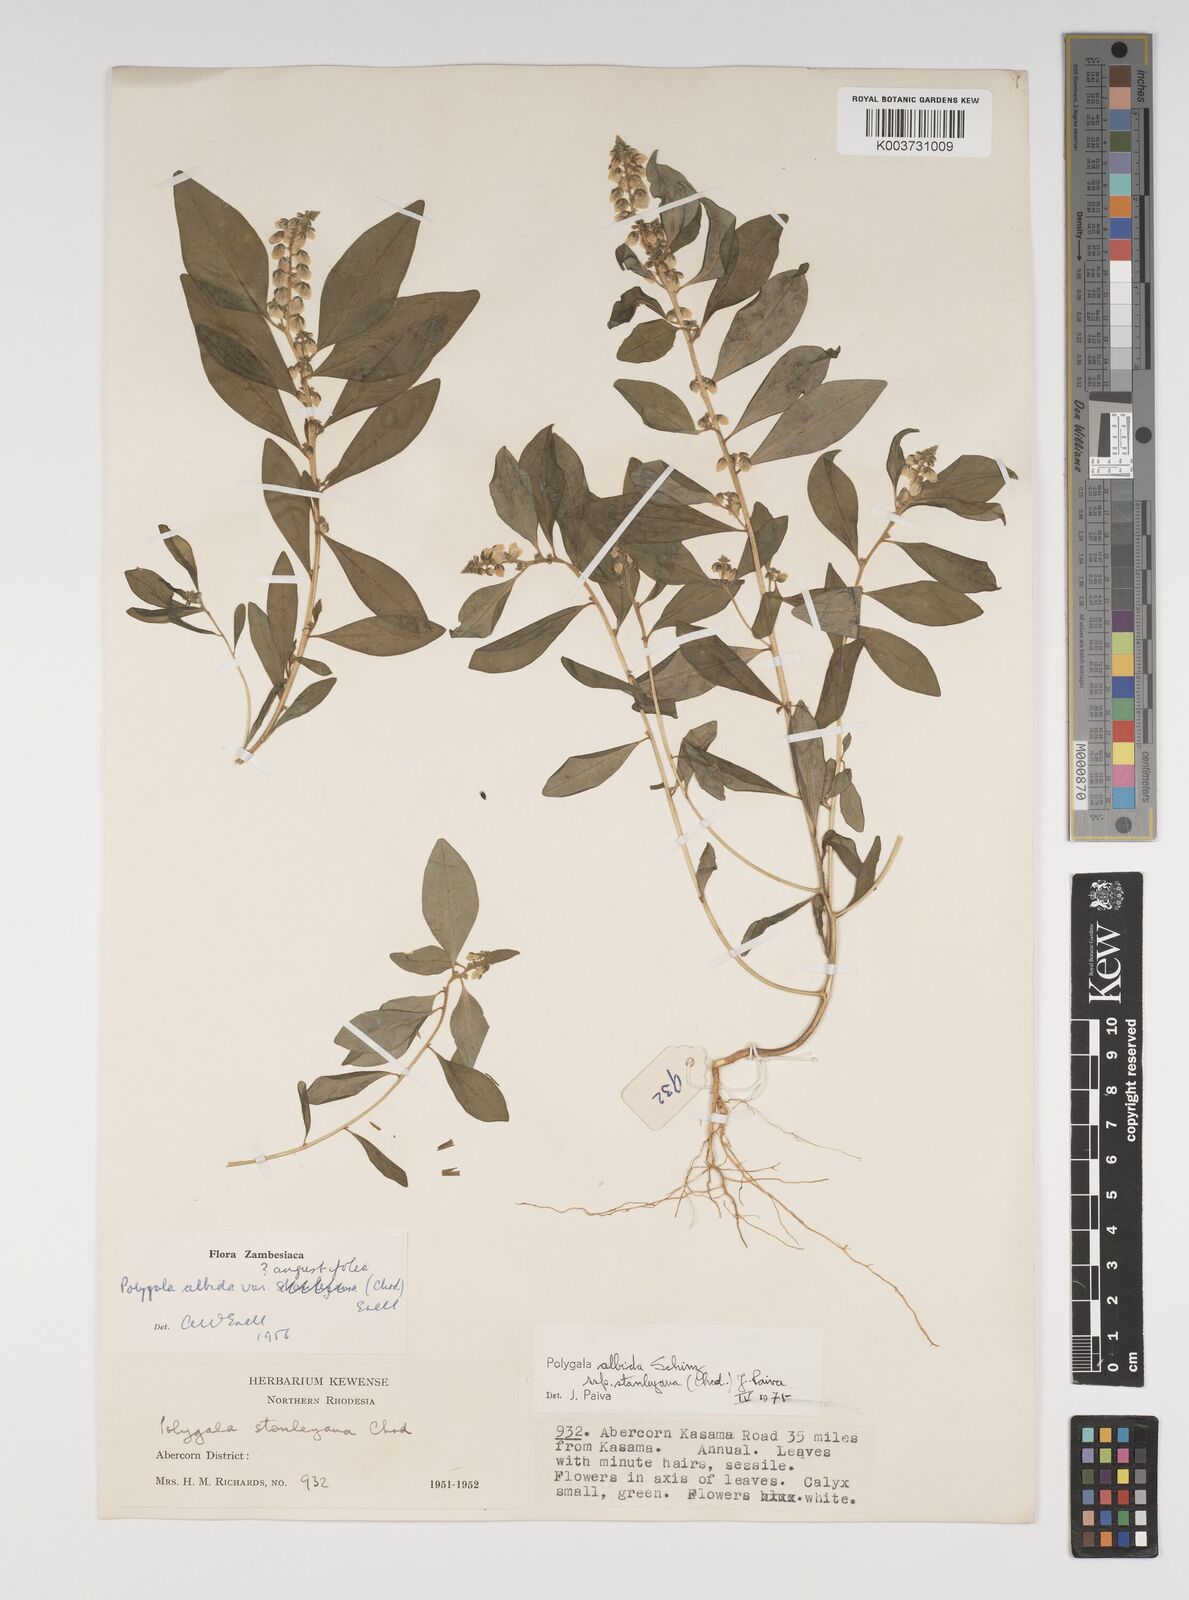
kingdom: Plantae
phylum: Tracheophyta
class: Magnoliopsida
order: Fabales
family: Polygalaceae
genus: Polygala
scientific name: Polygala albida
